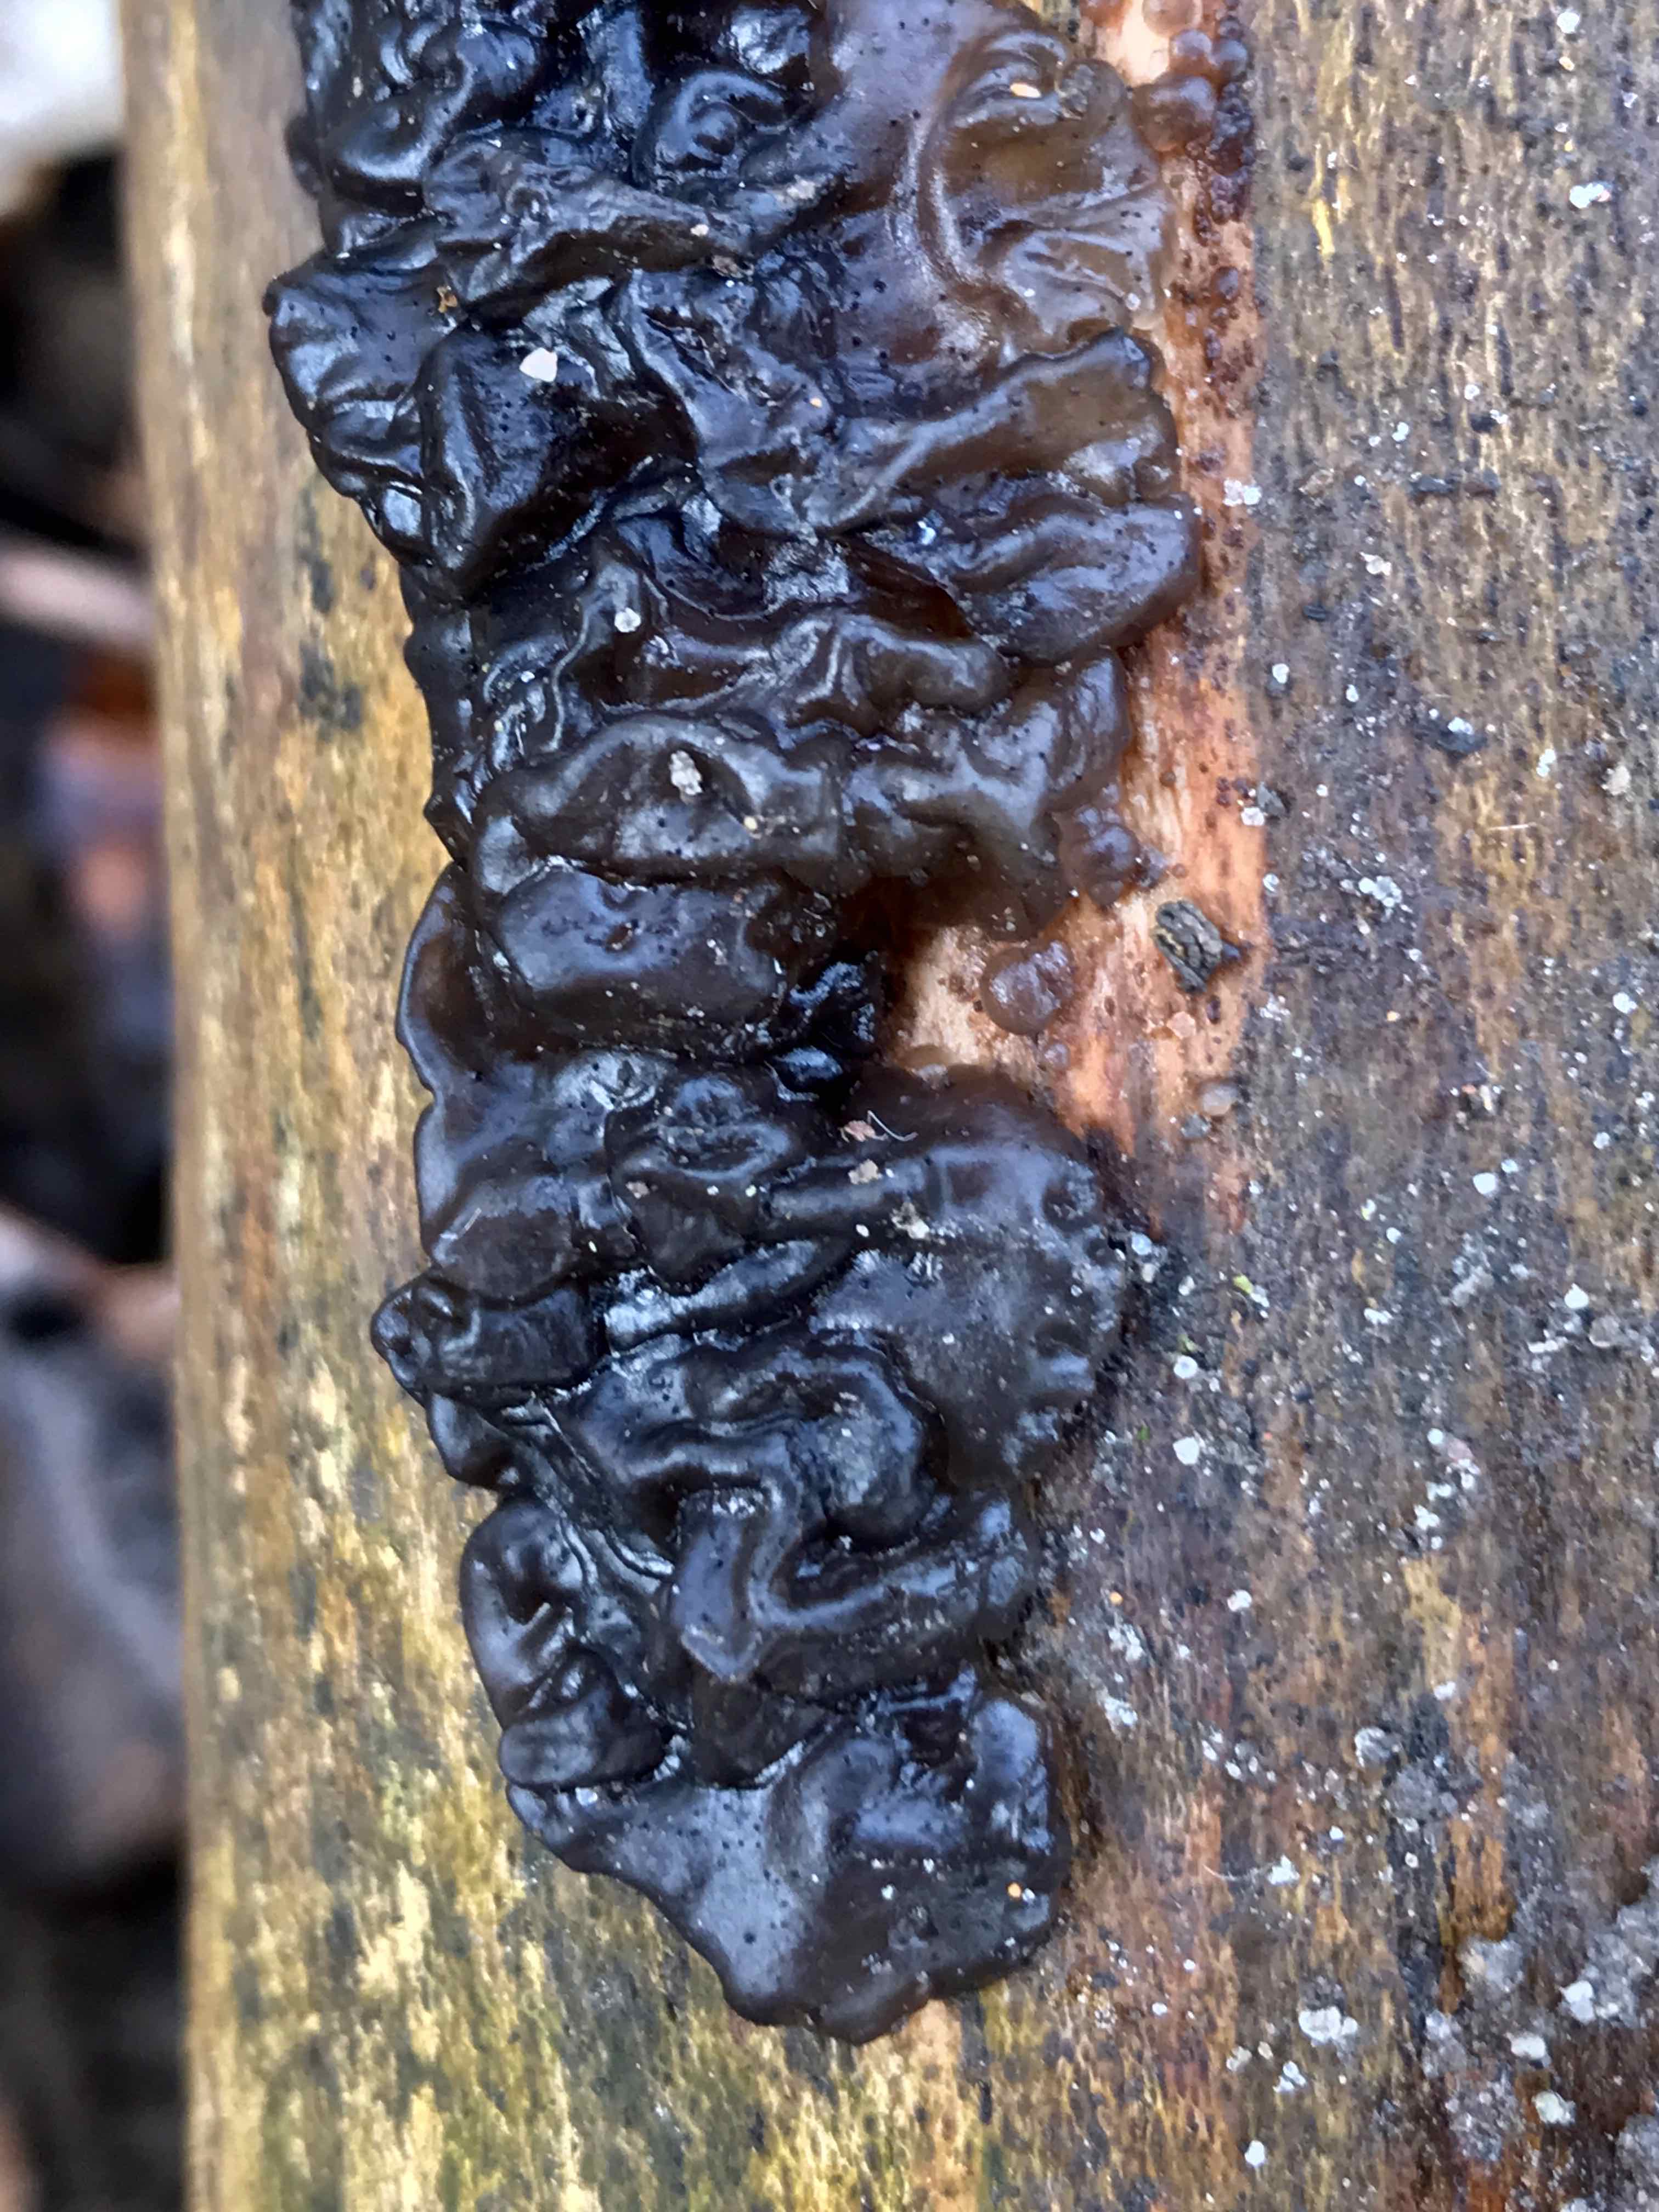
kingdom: Fungi
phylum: Basidiomycota
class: Agaricomycetes
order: Auriculariales
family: Auriculariaceae
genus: Exidia
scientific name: Exidia nigricans
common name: almindelig bævretop
